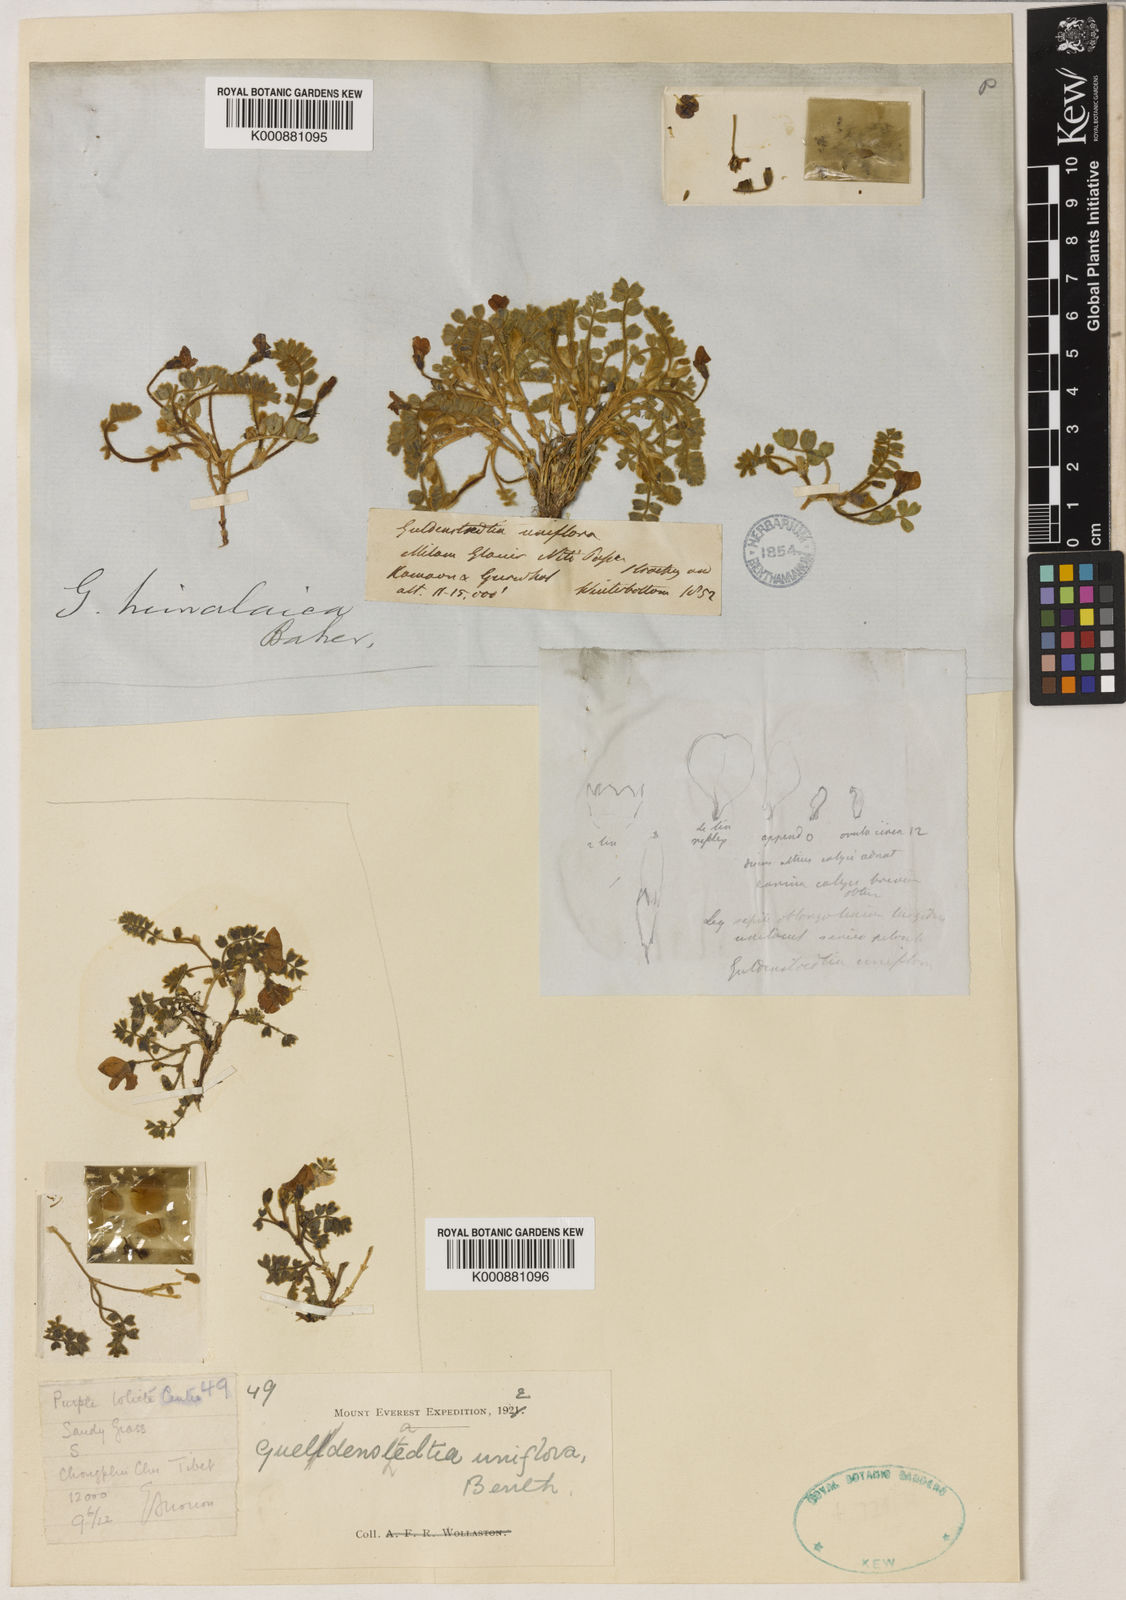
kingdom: Plantae
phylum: Tracheophyta
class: Magnoliopsida
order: Fabales
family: Fabaceae
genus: Tibetia
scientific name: Tibetia himalaica
